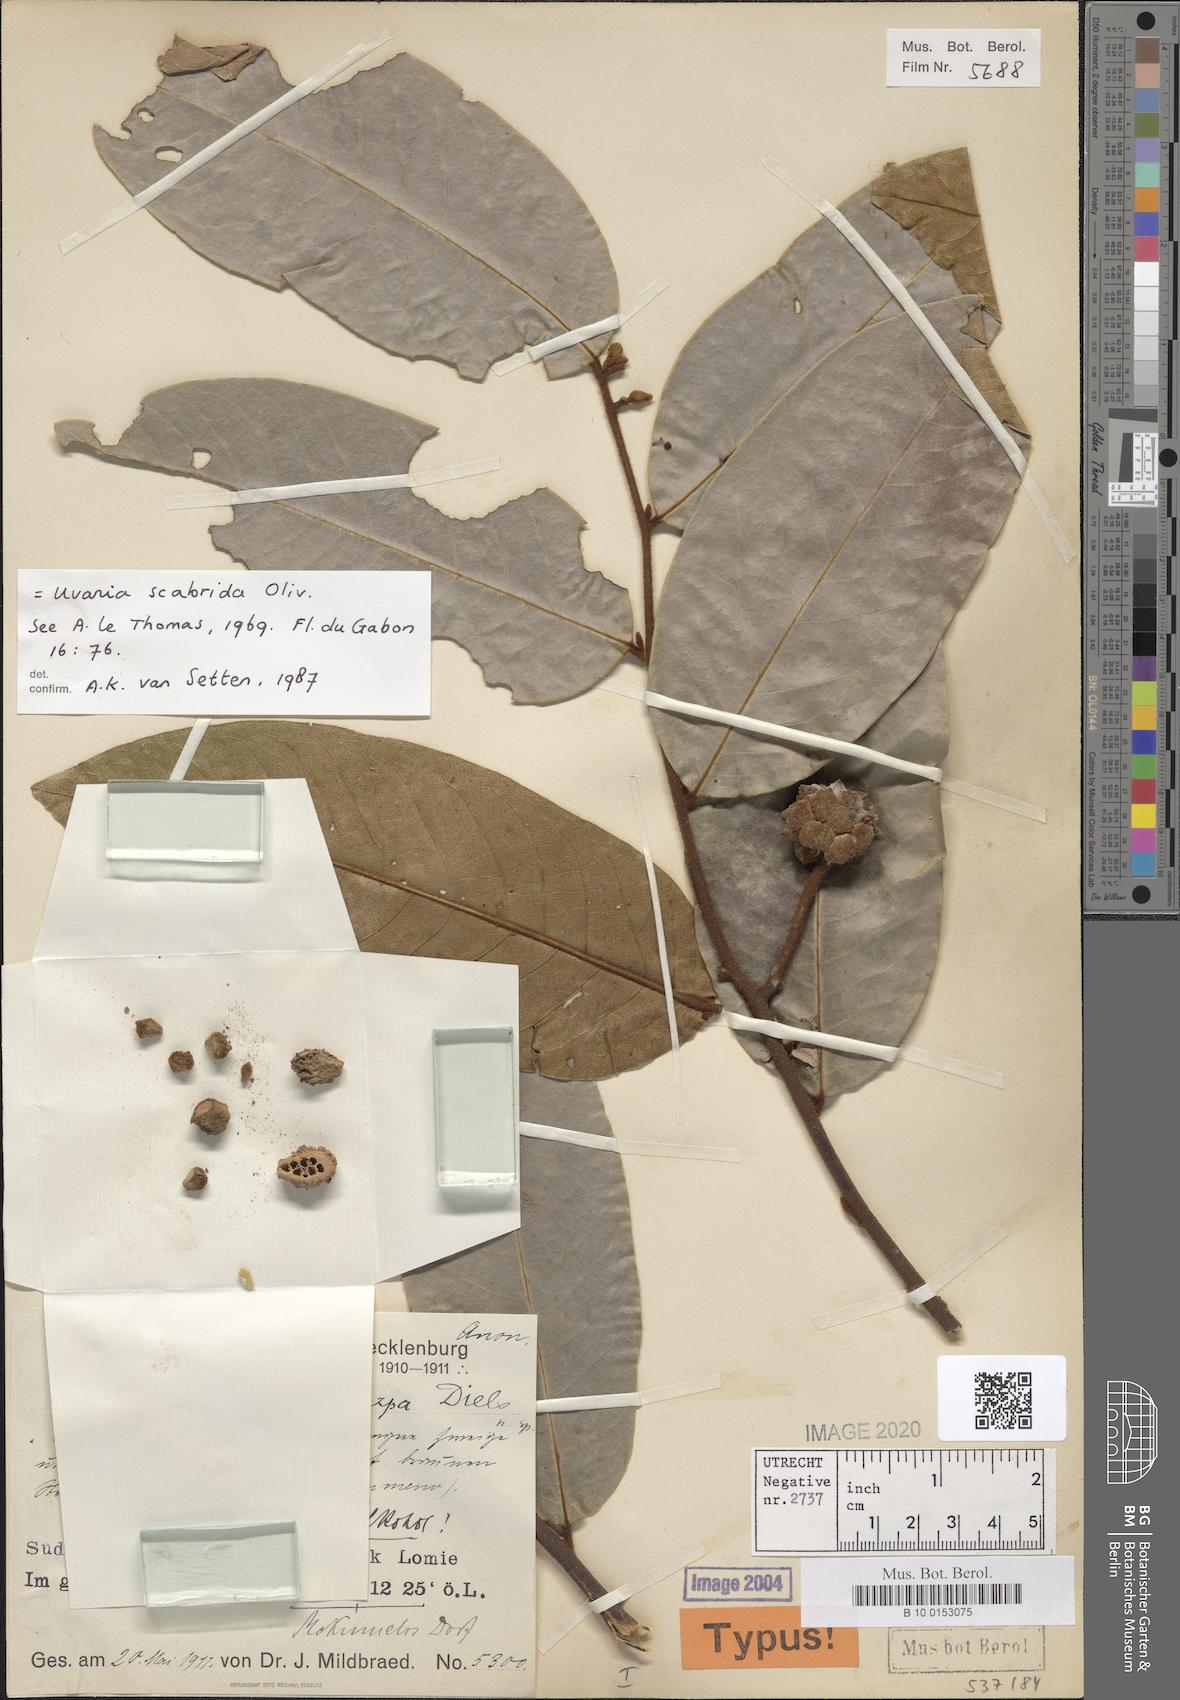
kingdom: Plantae
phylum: Tracheophyta
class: Magnoliopsida
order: Magnoliales
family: Annonaceae
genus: Uvaria
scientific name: Uvaria scabrida
